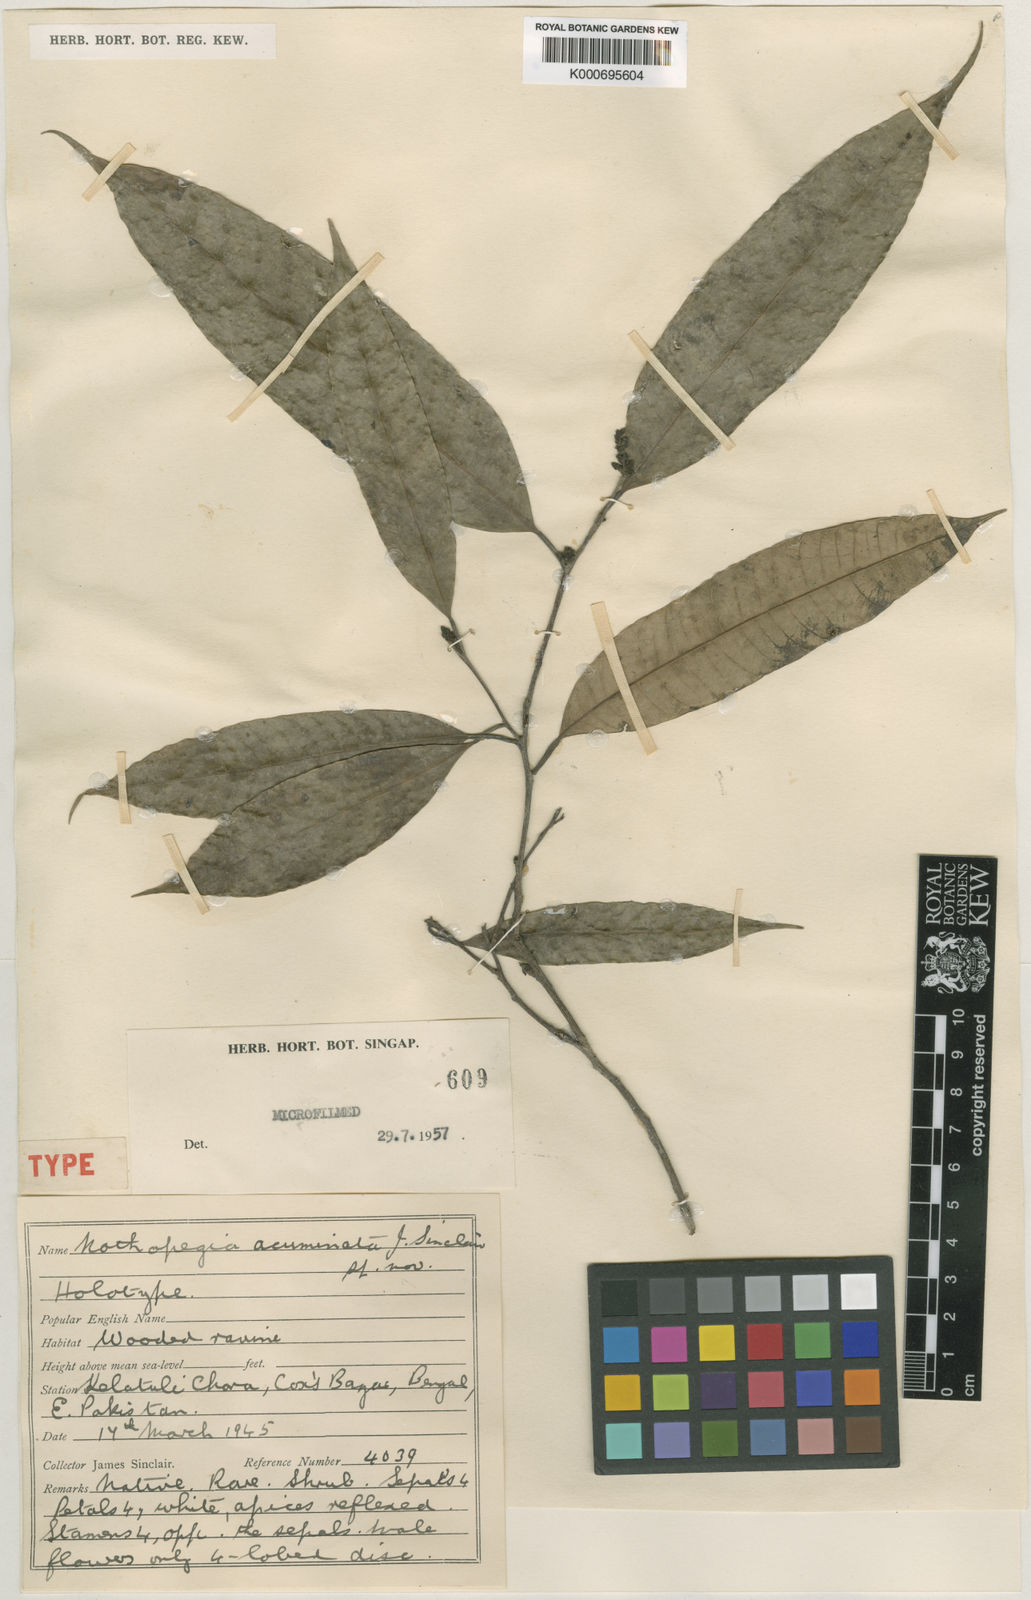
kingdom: Plantae
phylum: Tracheophyta
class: Magnoliopsida
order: Sapindales
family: Anacardiaceae
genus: Nothopegia
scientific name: Nothopegia acuminata
